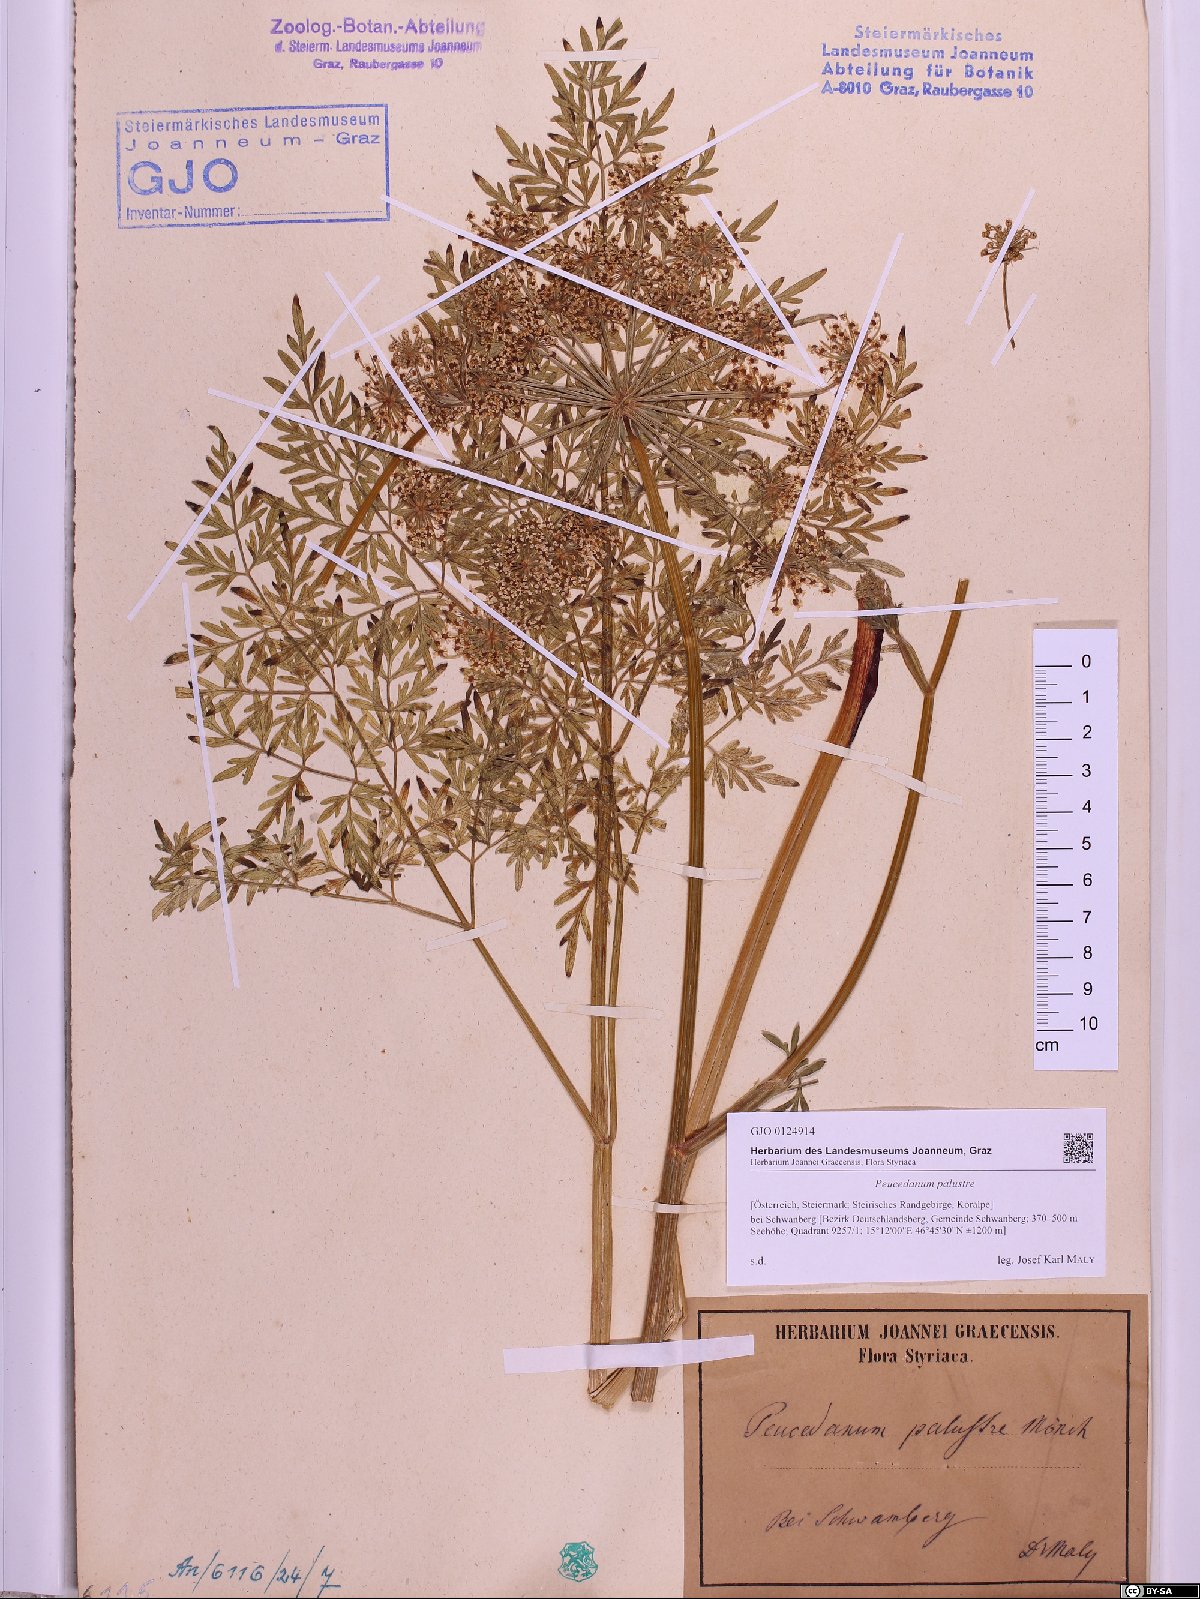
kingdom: Plantae
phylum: Tracheophyta
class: Magnoliopsida
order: Apiales
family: Apiaceae
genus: Thysselinum
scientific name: Thysselinum palustre
